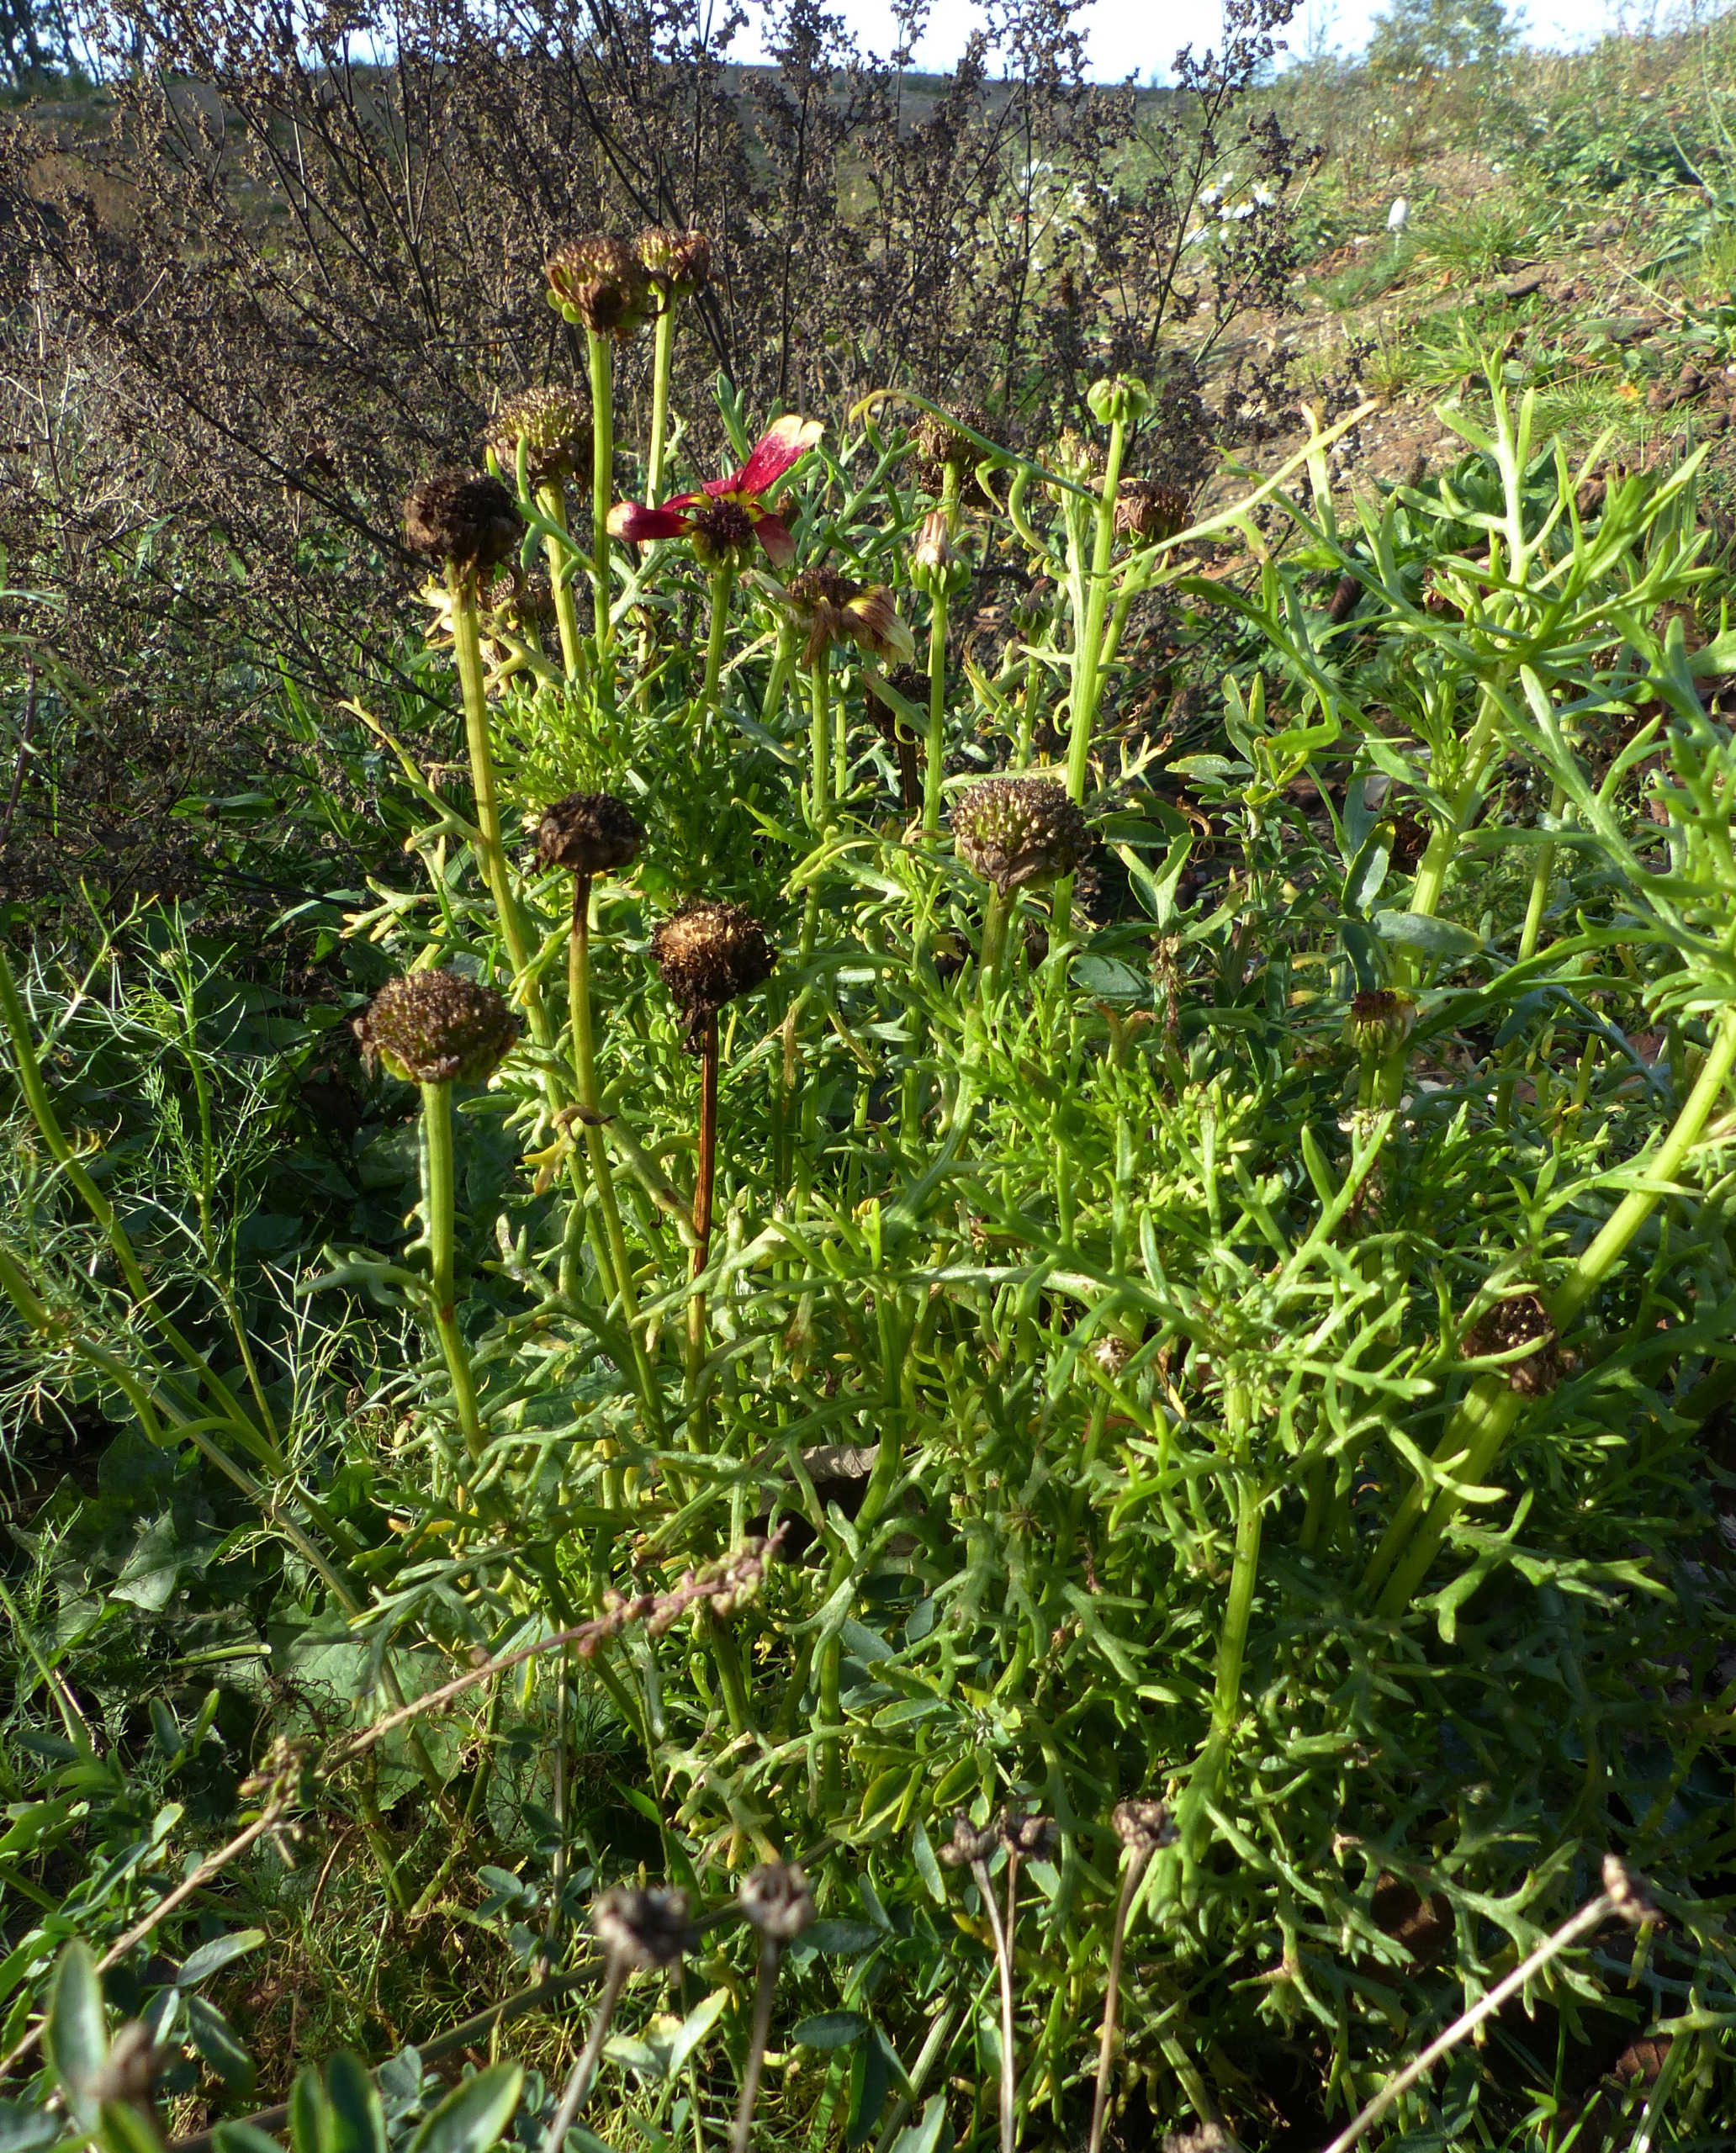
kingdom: Plantae
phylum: Tracheophyta
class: Magnoliopsida
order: Asterales
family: Asteraceae
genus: Glebionis
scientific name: Glebionis carinata
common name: Flerfarvet okseøje
